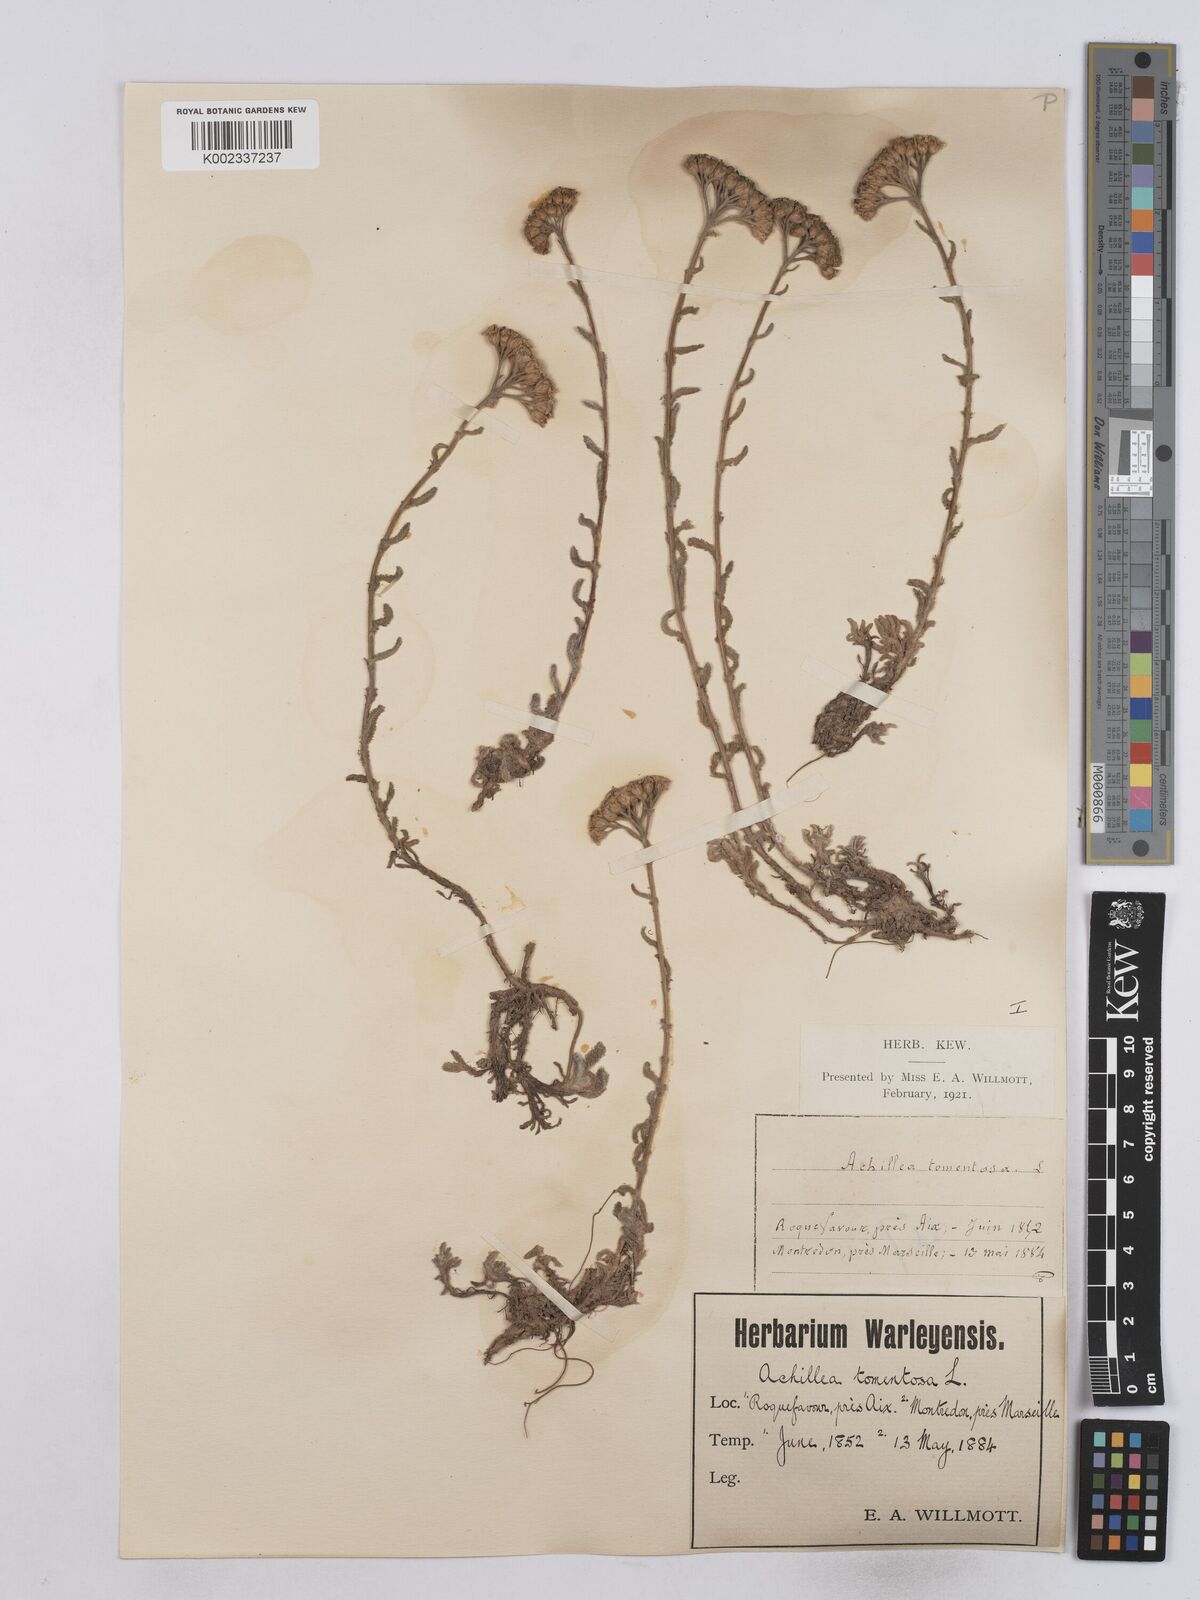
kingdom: Plantae
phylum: Tracheophyta
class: Magnoliopsida
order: Asterales
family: Asteraceae
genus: Achillea
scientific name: Achillea tomentosa
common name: Yellow milfoil
